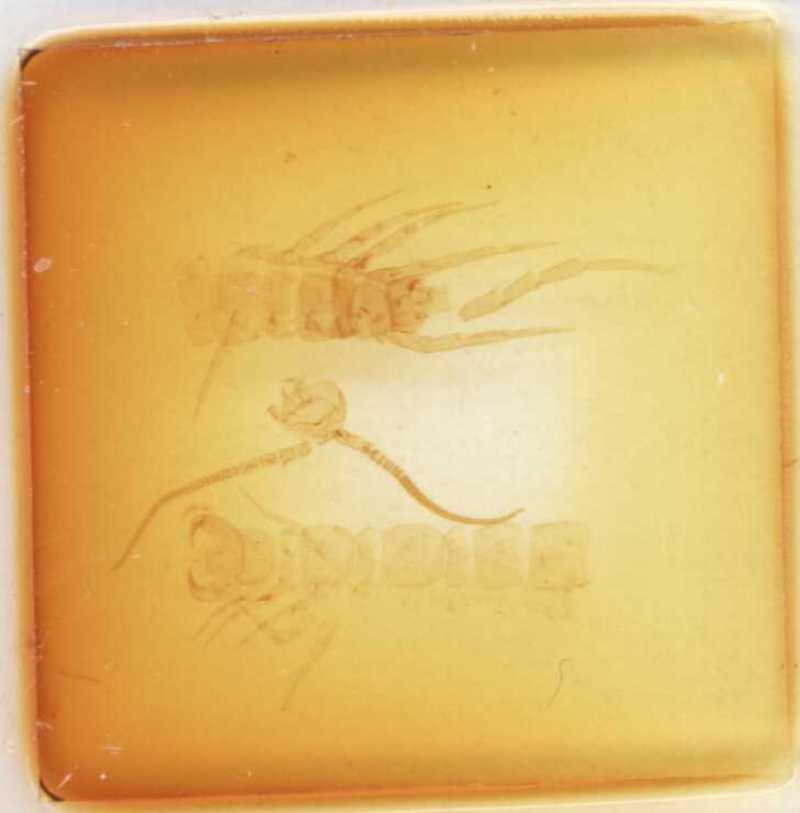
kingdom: Animalia
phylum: Arthropoda
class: Chilopoda
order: Lithobiomorpha
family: Lithobiidae
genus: Lithobius
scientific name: Lithobius nodulipes
